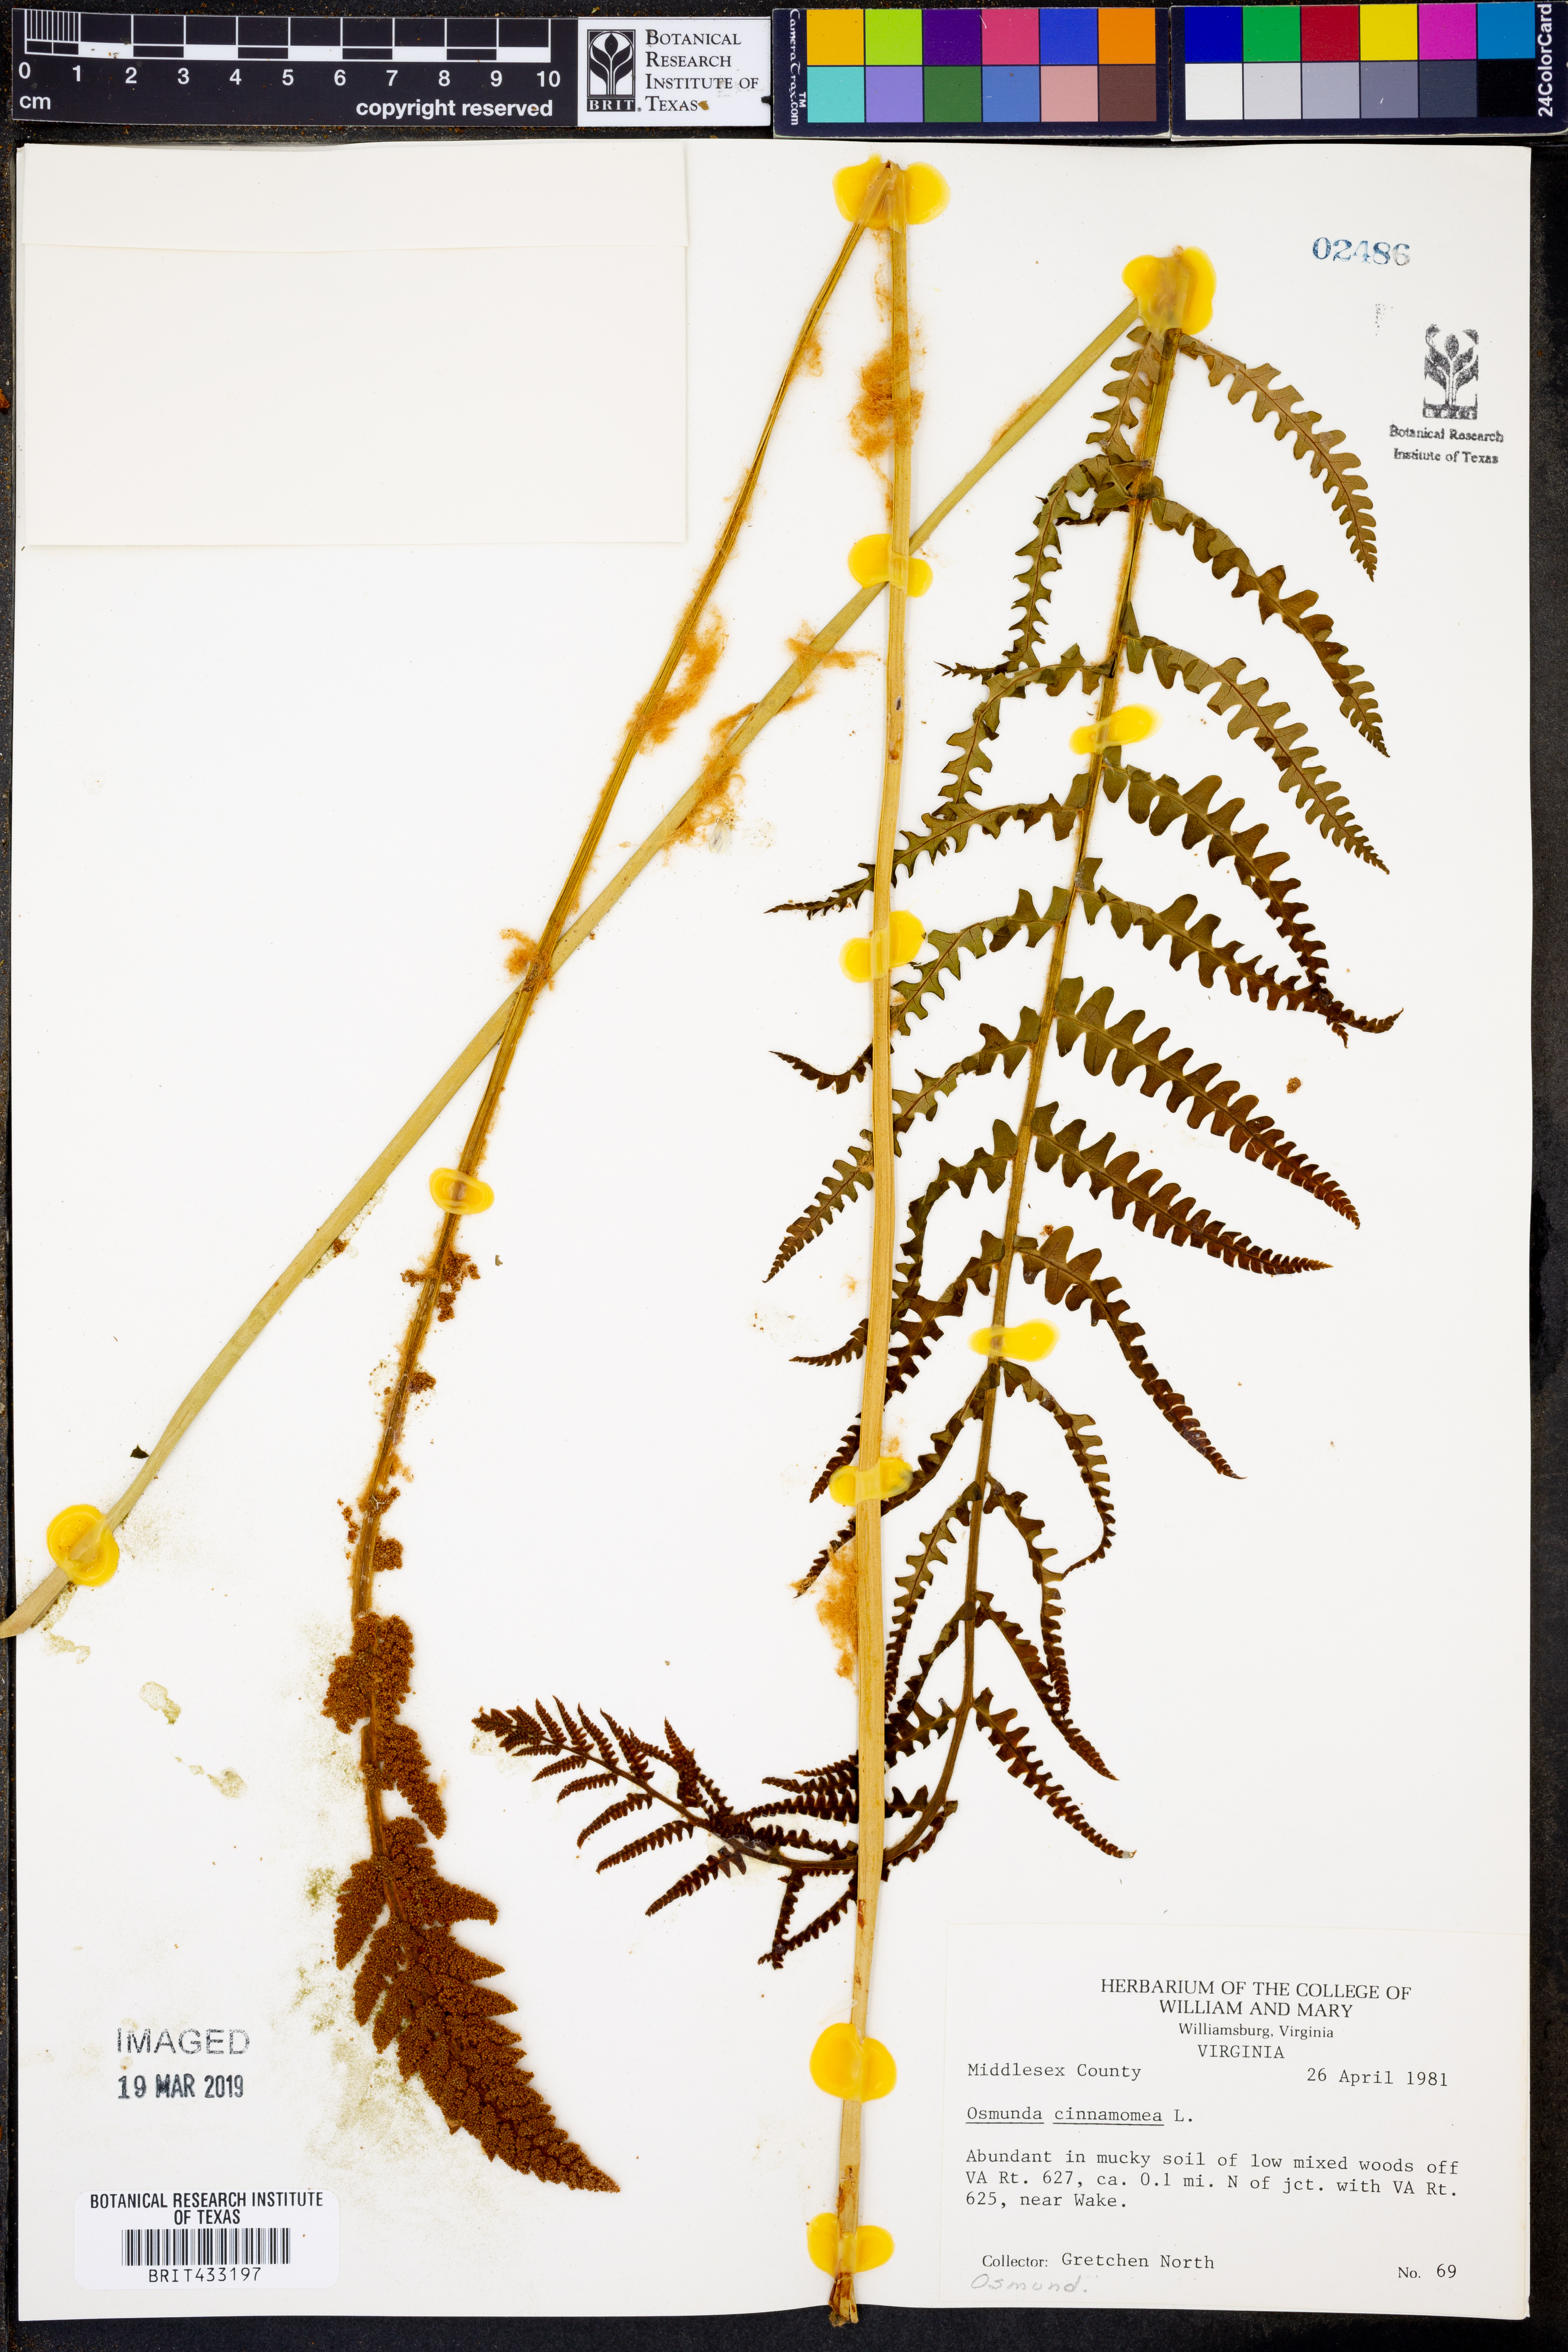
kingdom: Plantae
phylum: Tracheophyta
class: Polypodiopsida
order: Osmundales
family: Osmundaceae
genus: Osmundastrum
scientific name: Osmundastrum cinnamomeum
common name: Cinnamon fern
